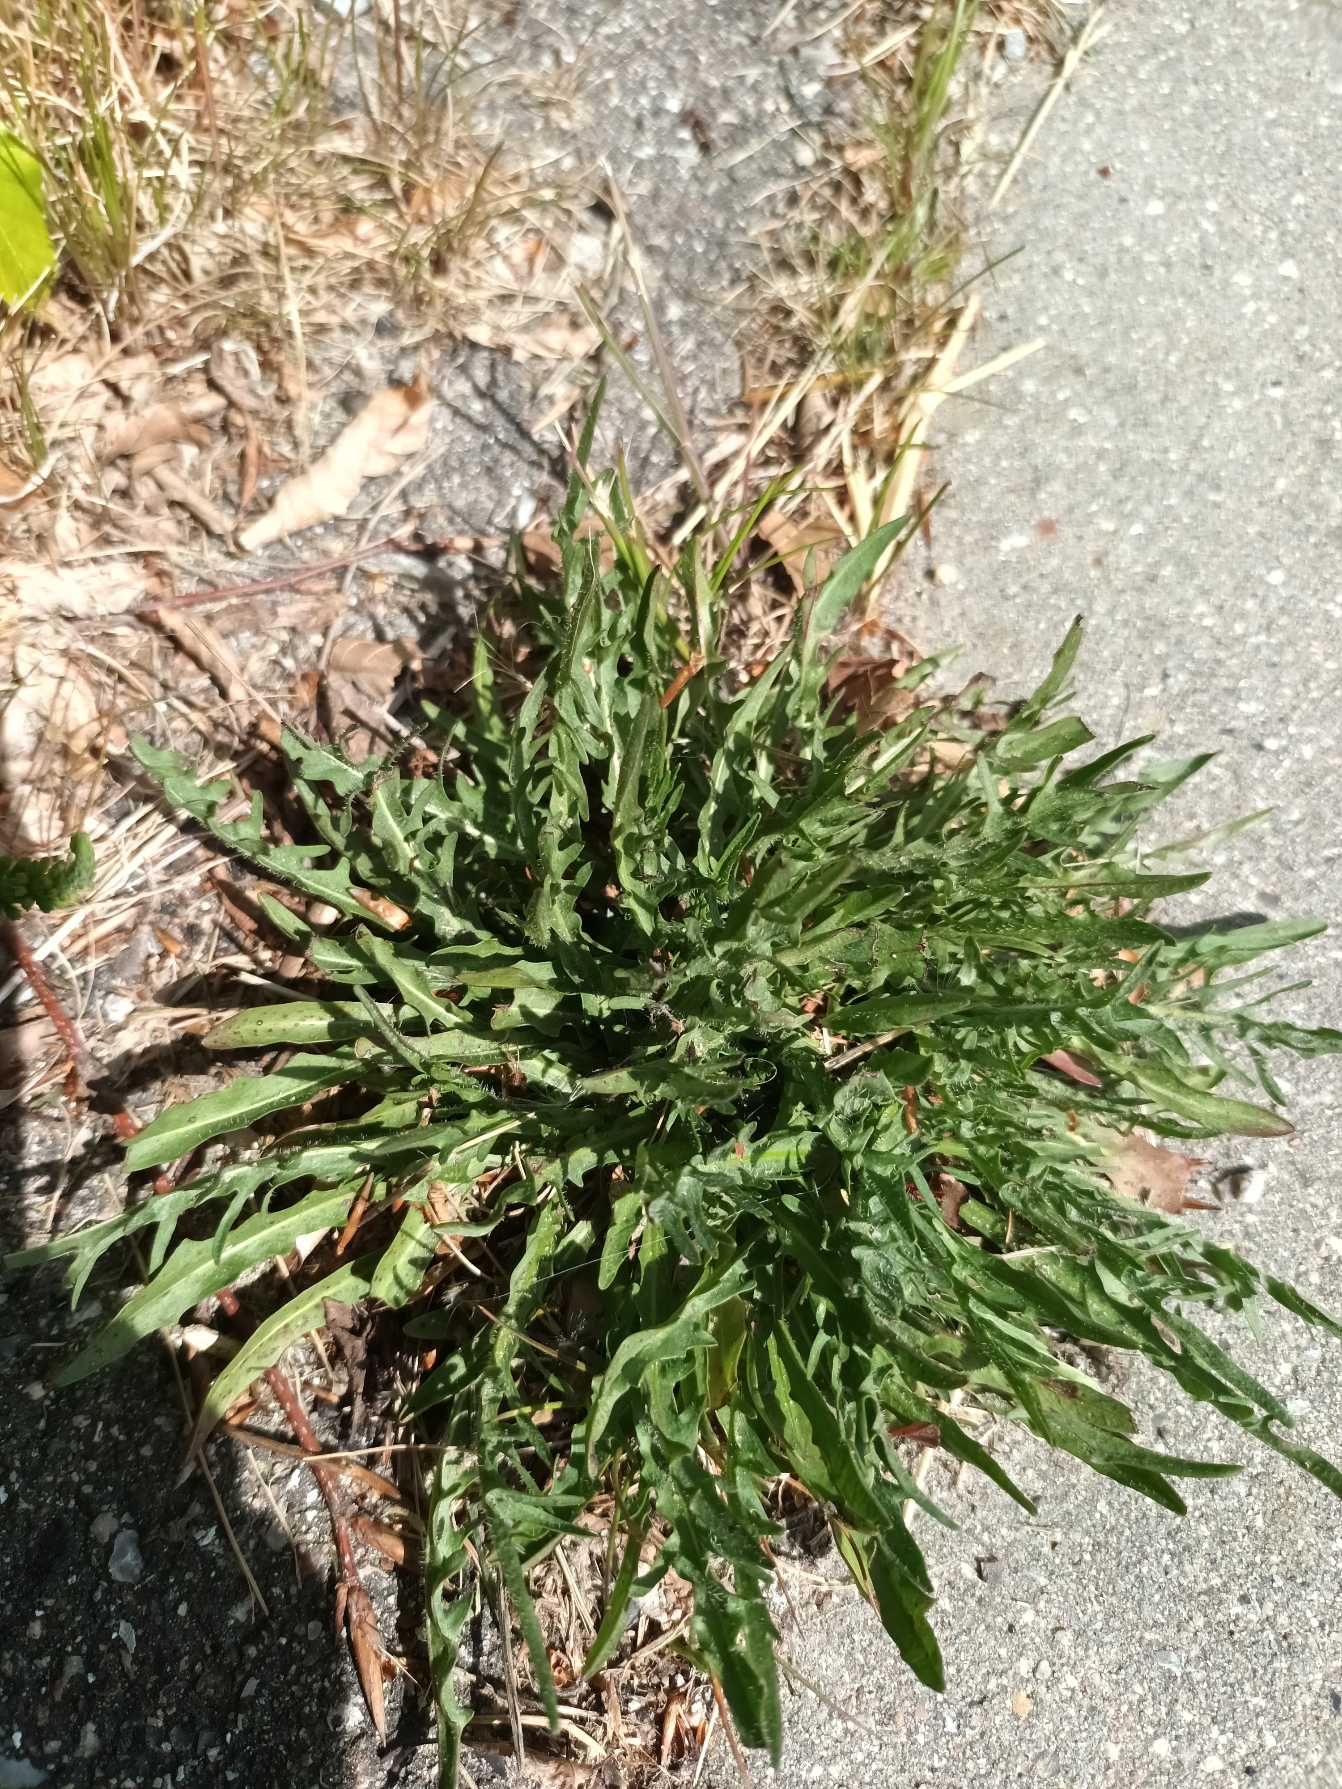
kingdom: Plantae
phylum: Tracheophyta
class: Magnoliopsida
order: Asterales
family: Asteraceae
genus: Scorzoneroides
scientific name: Scorzoneroides autumnalis
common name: Høst-borst
